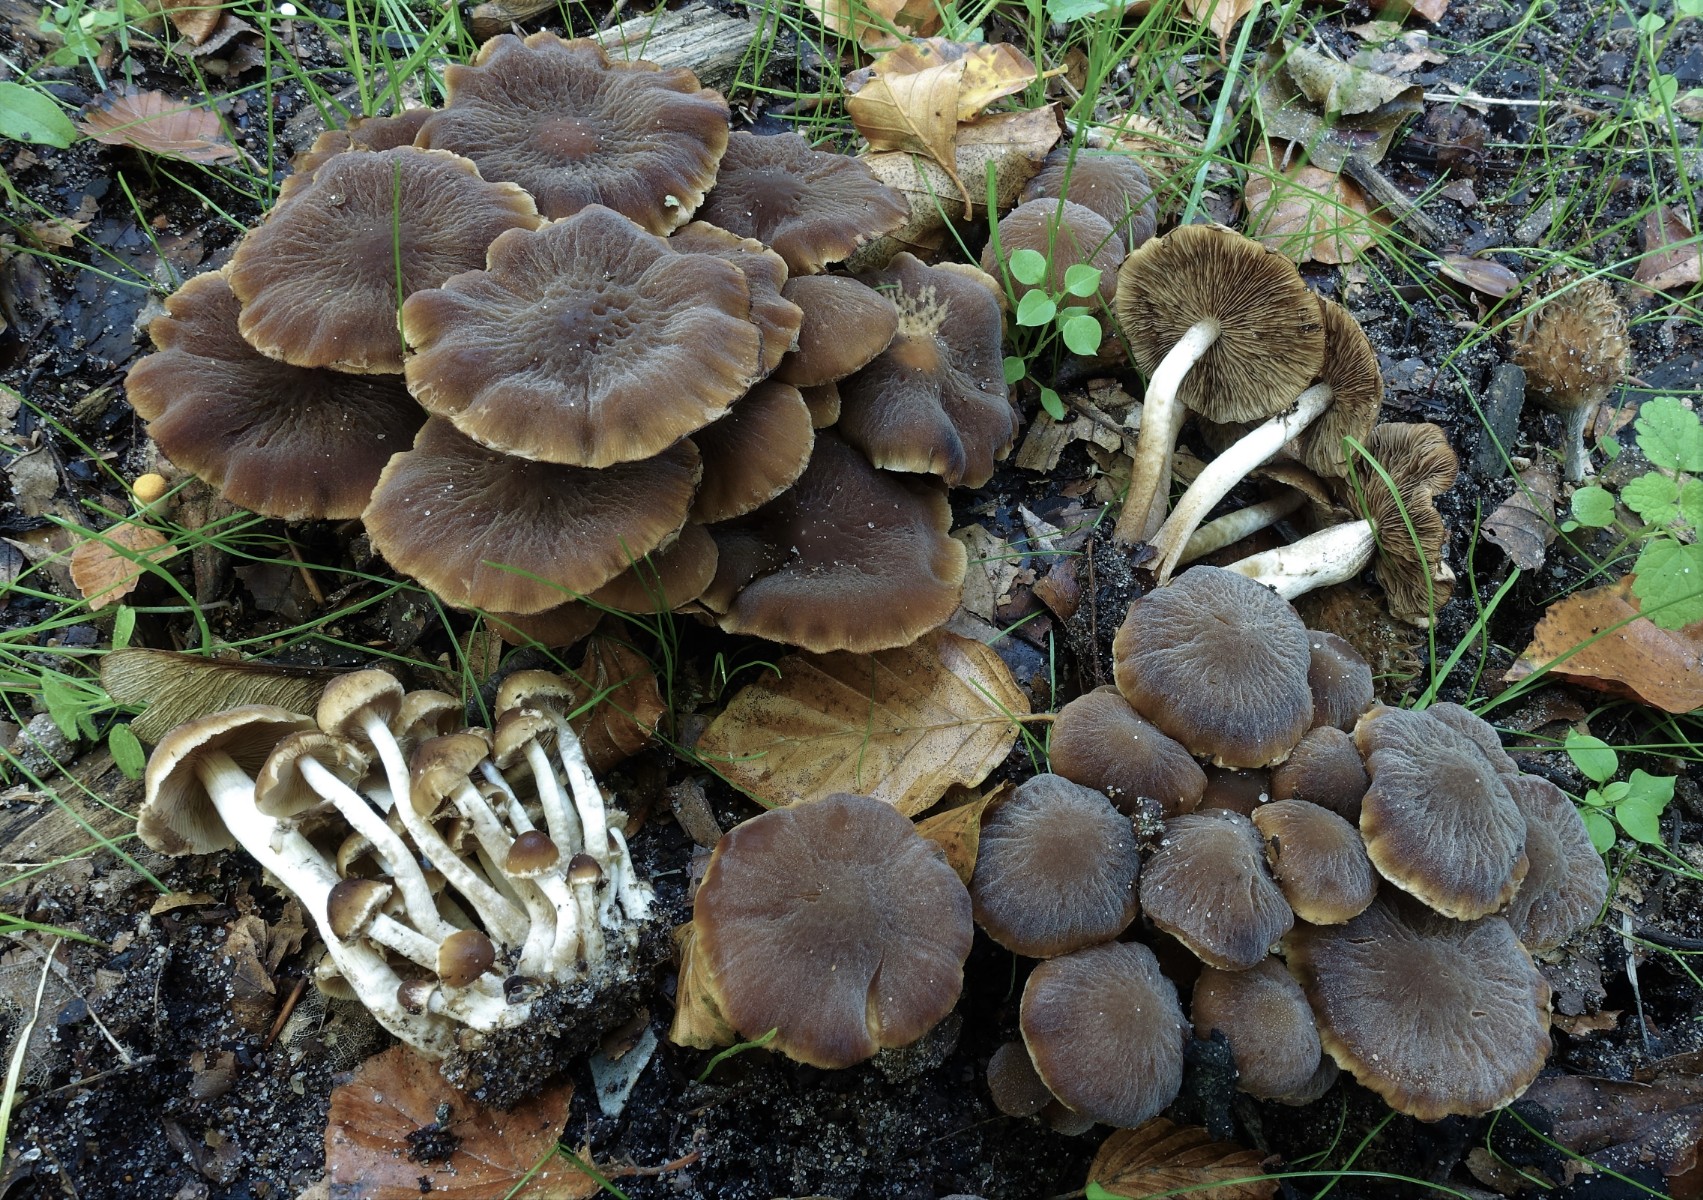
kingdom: Fungi
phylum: Basidiomycota
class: Agaricomycetes
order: Agaricales
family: Psathyrellaceae
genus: Psathyrella
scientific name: Psathyrella
